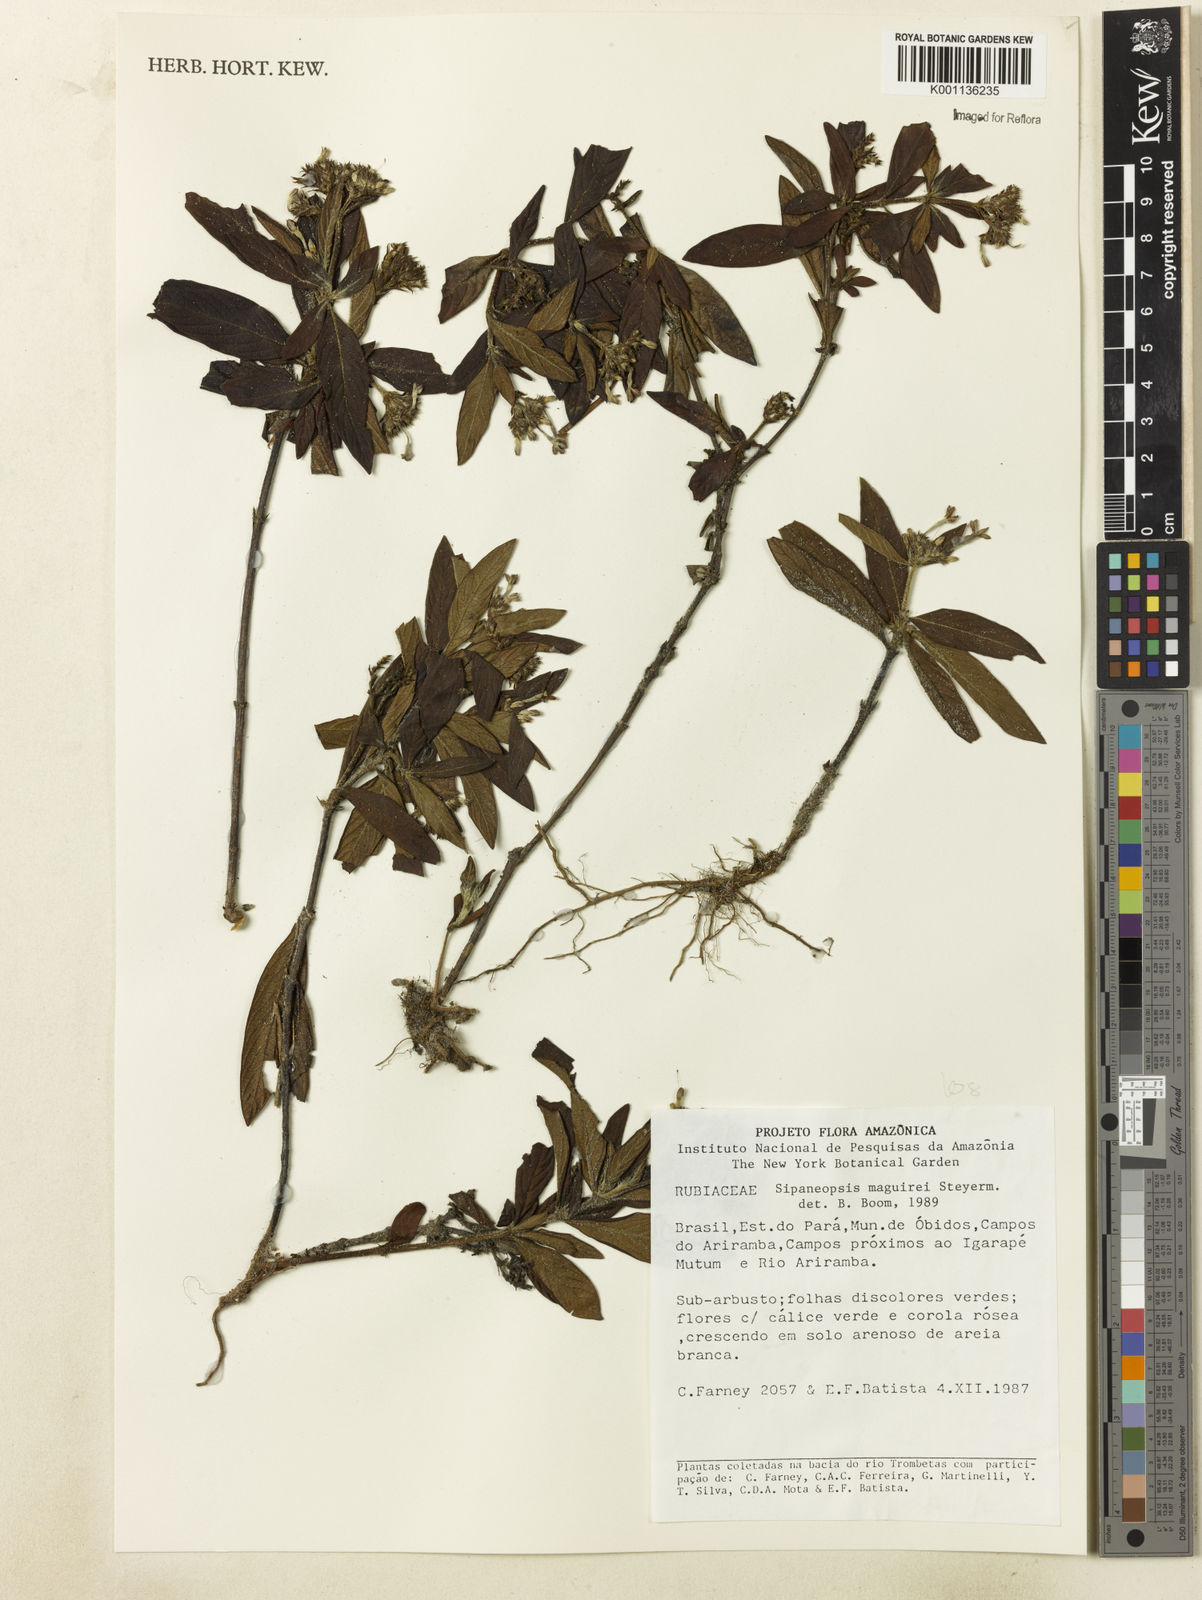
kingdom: Plantae
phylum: Tracheophyta
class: Magnoliopsida
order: Gentianales
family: Rubiaceae
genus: Sipaneopsis
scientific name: Sipaneopsis maguirei
